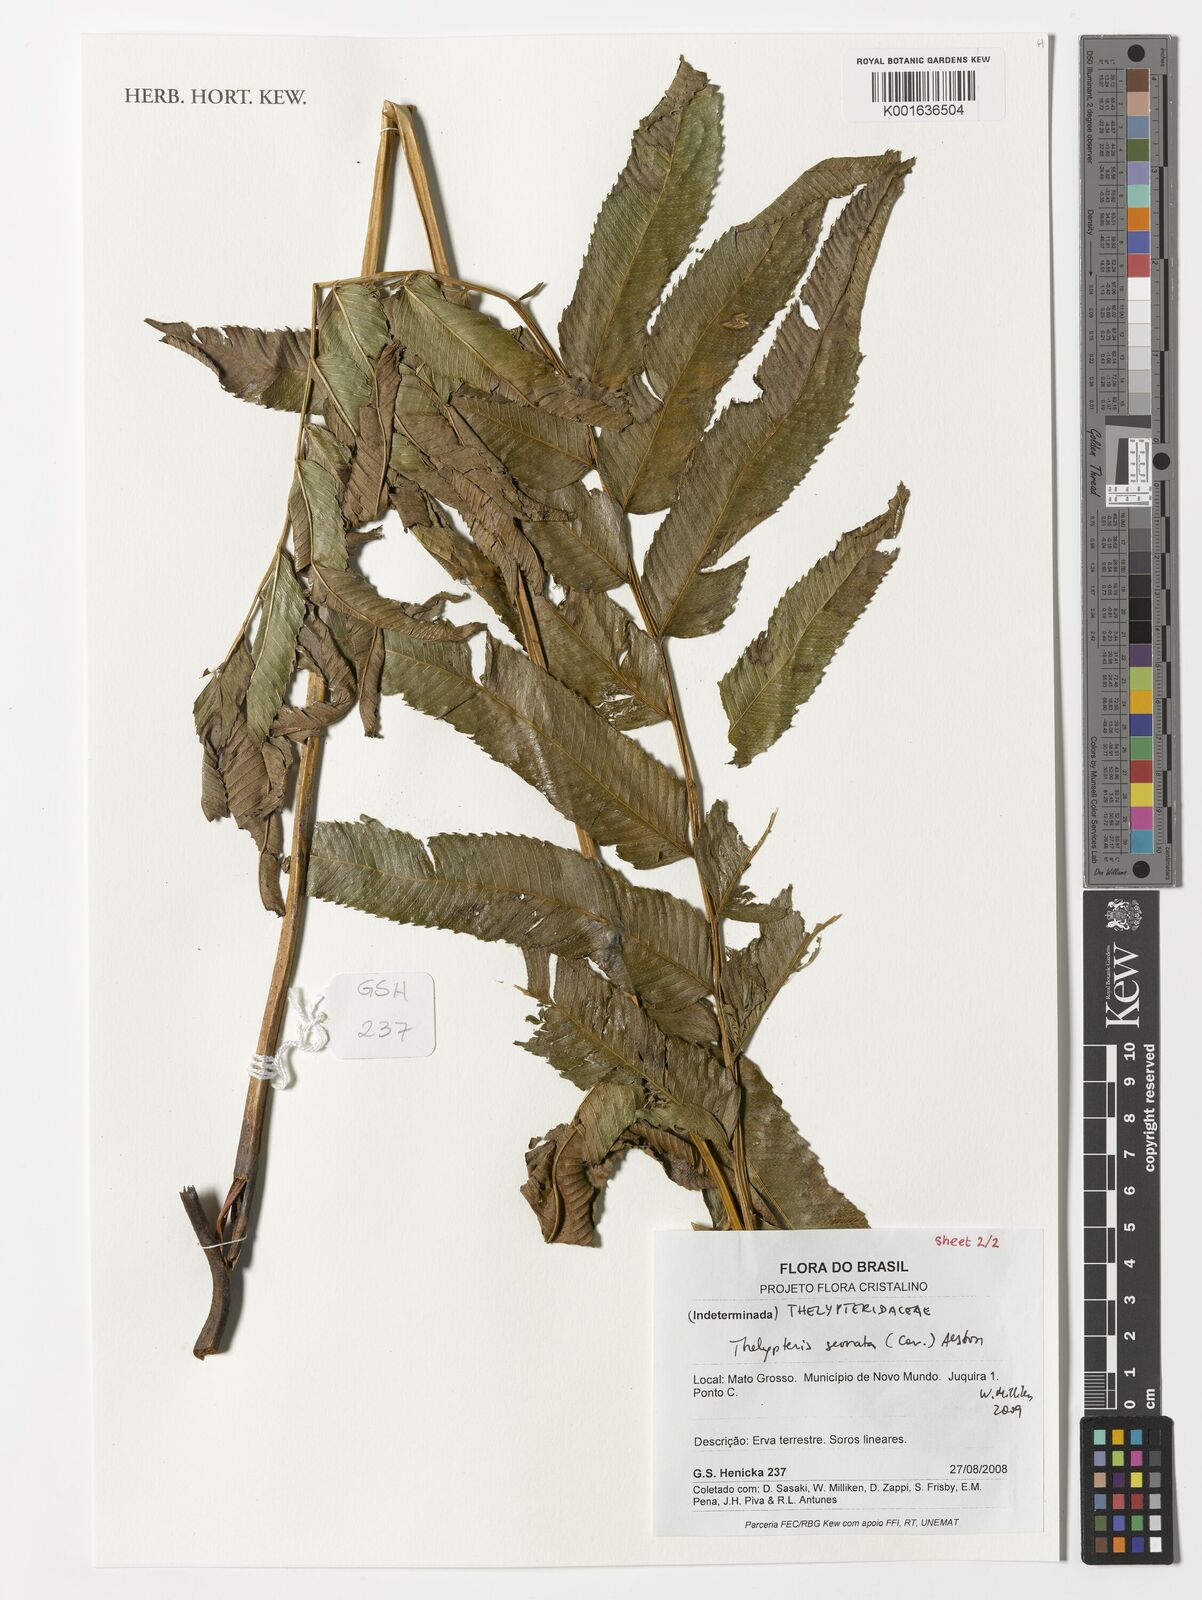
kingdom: Plantae
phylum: Tracheophyta
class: Polypodiopsida
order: Polypodiales
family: Thelypteridaceae
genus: Meniscium
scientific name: Meniscium serratum
